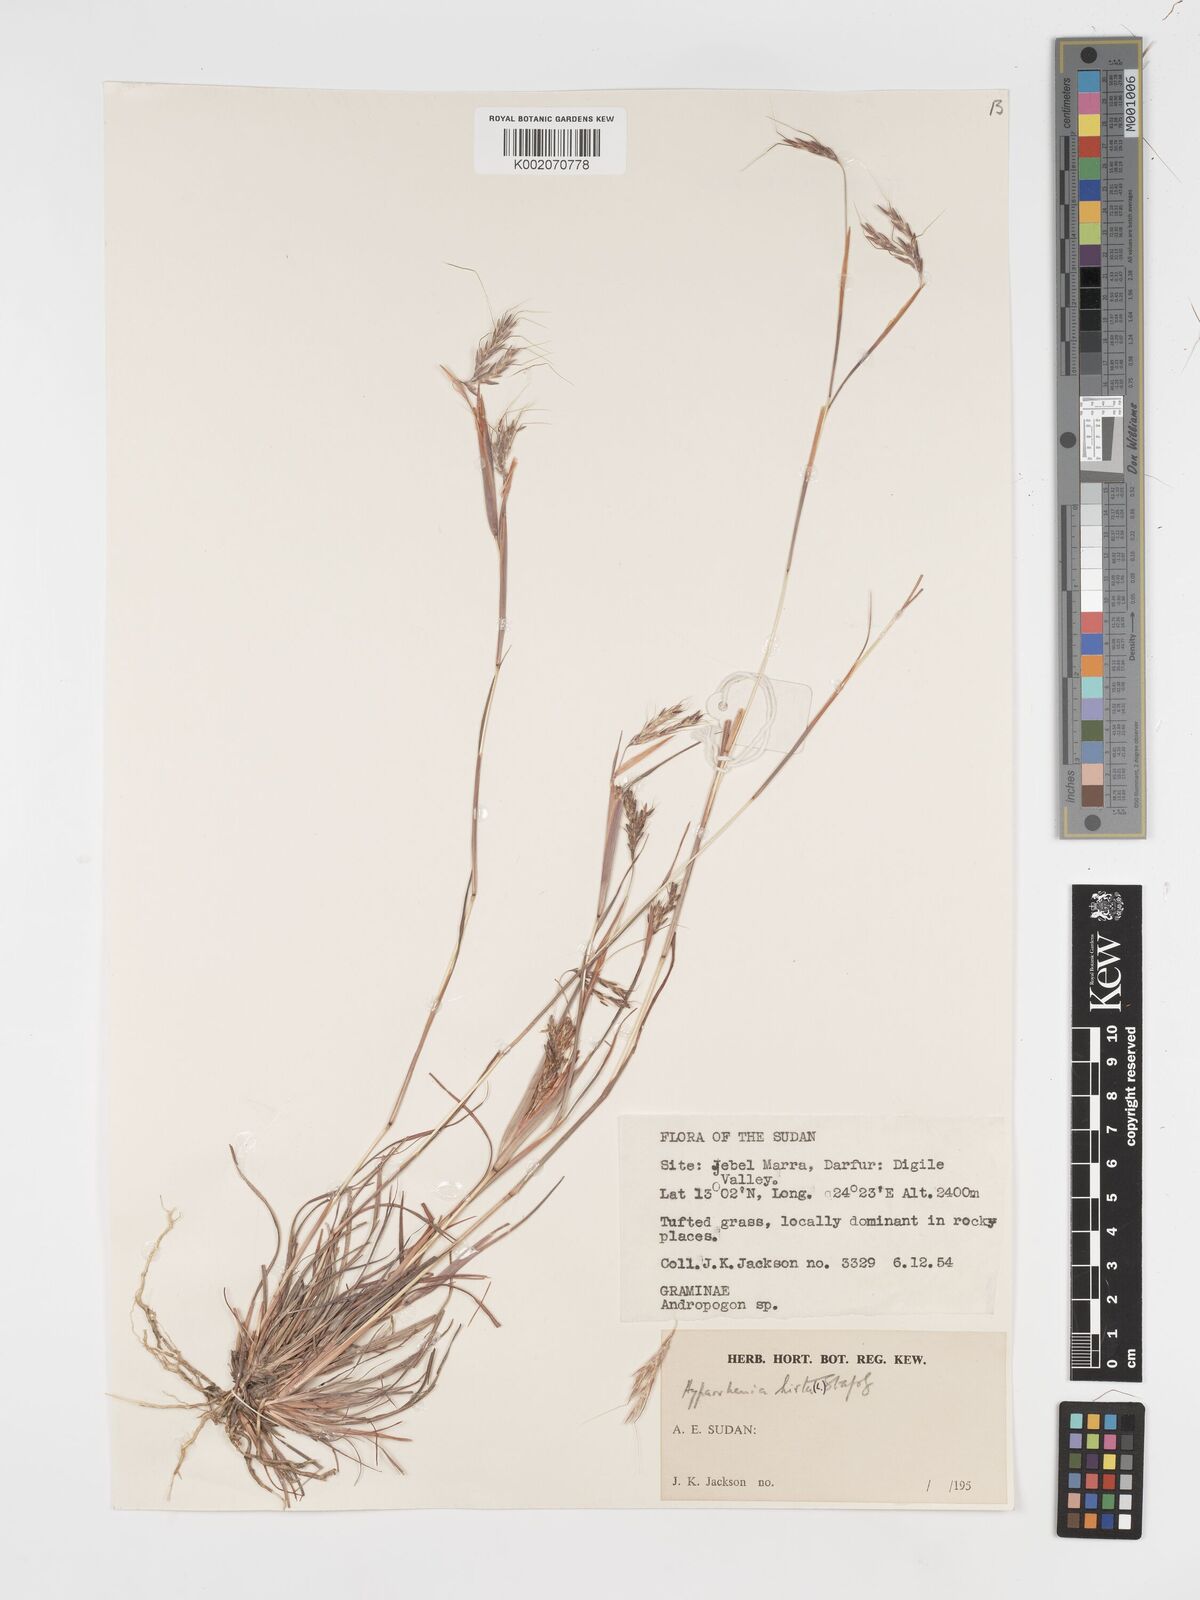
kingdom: Plantae
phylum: Tracheophyta
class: Liliopsida
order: Poales
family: Poaceae
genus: Hyparrhenia
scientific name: Hyparrhenia hirta
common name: Thatching grass
